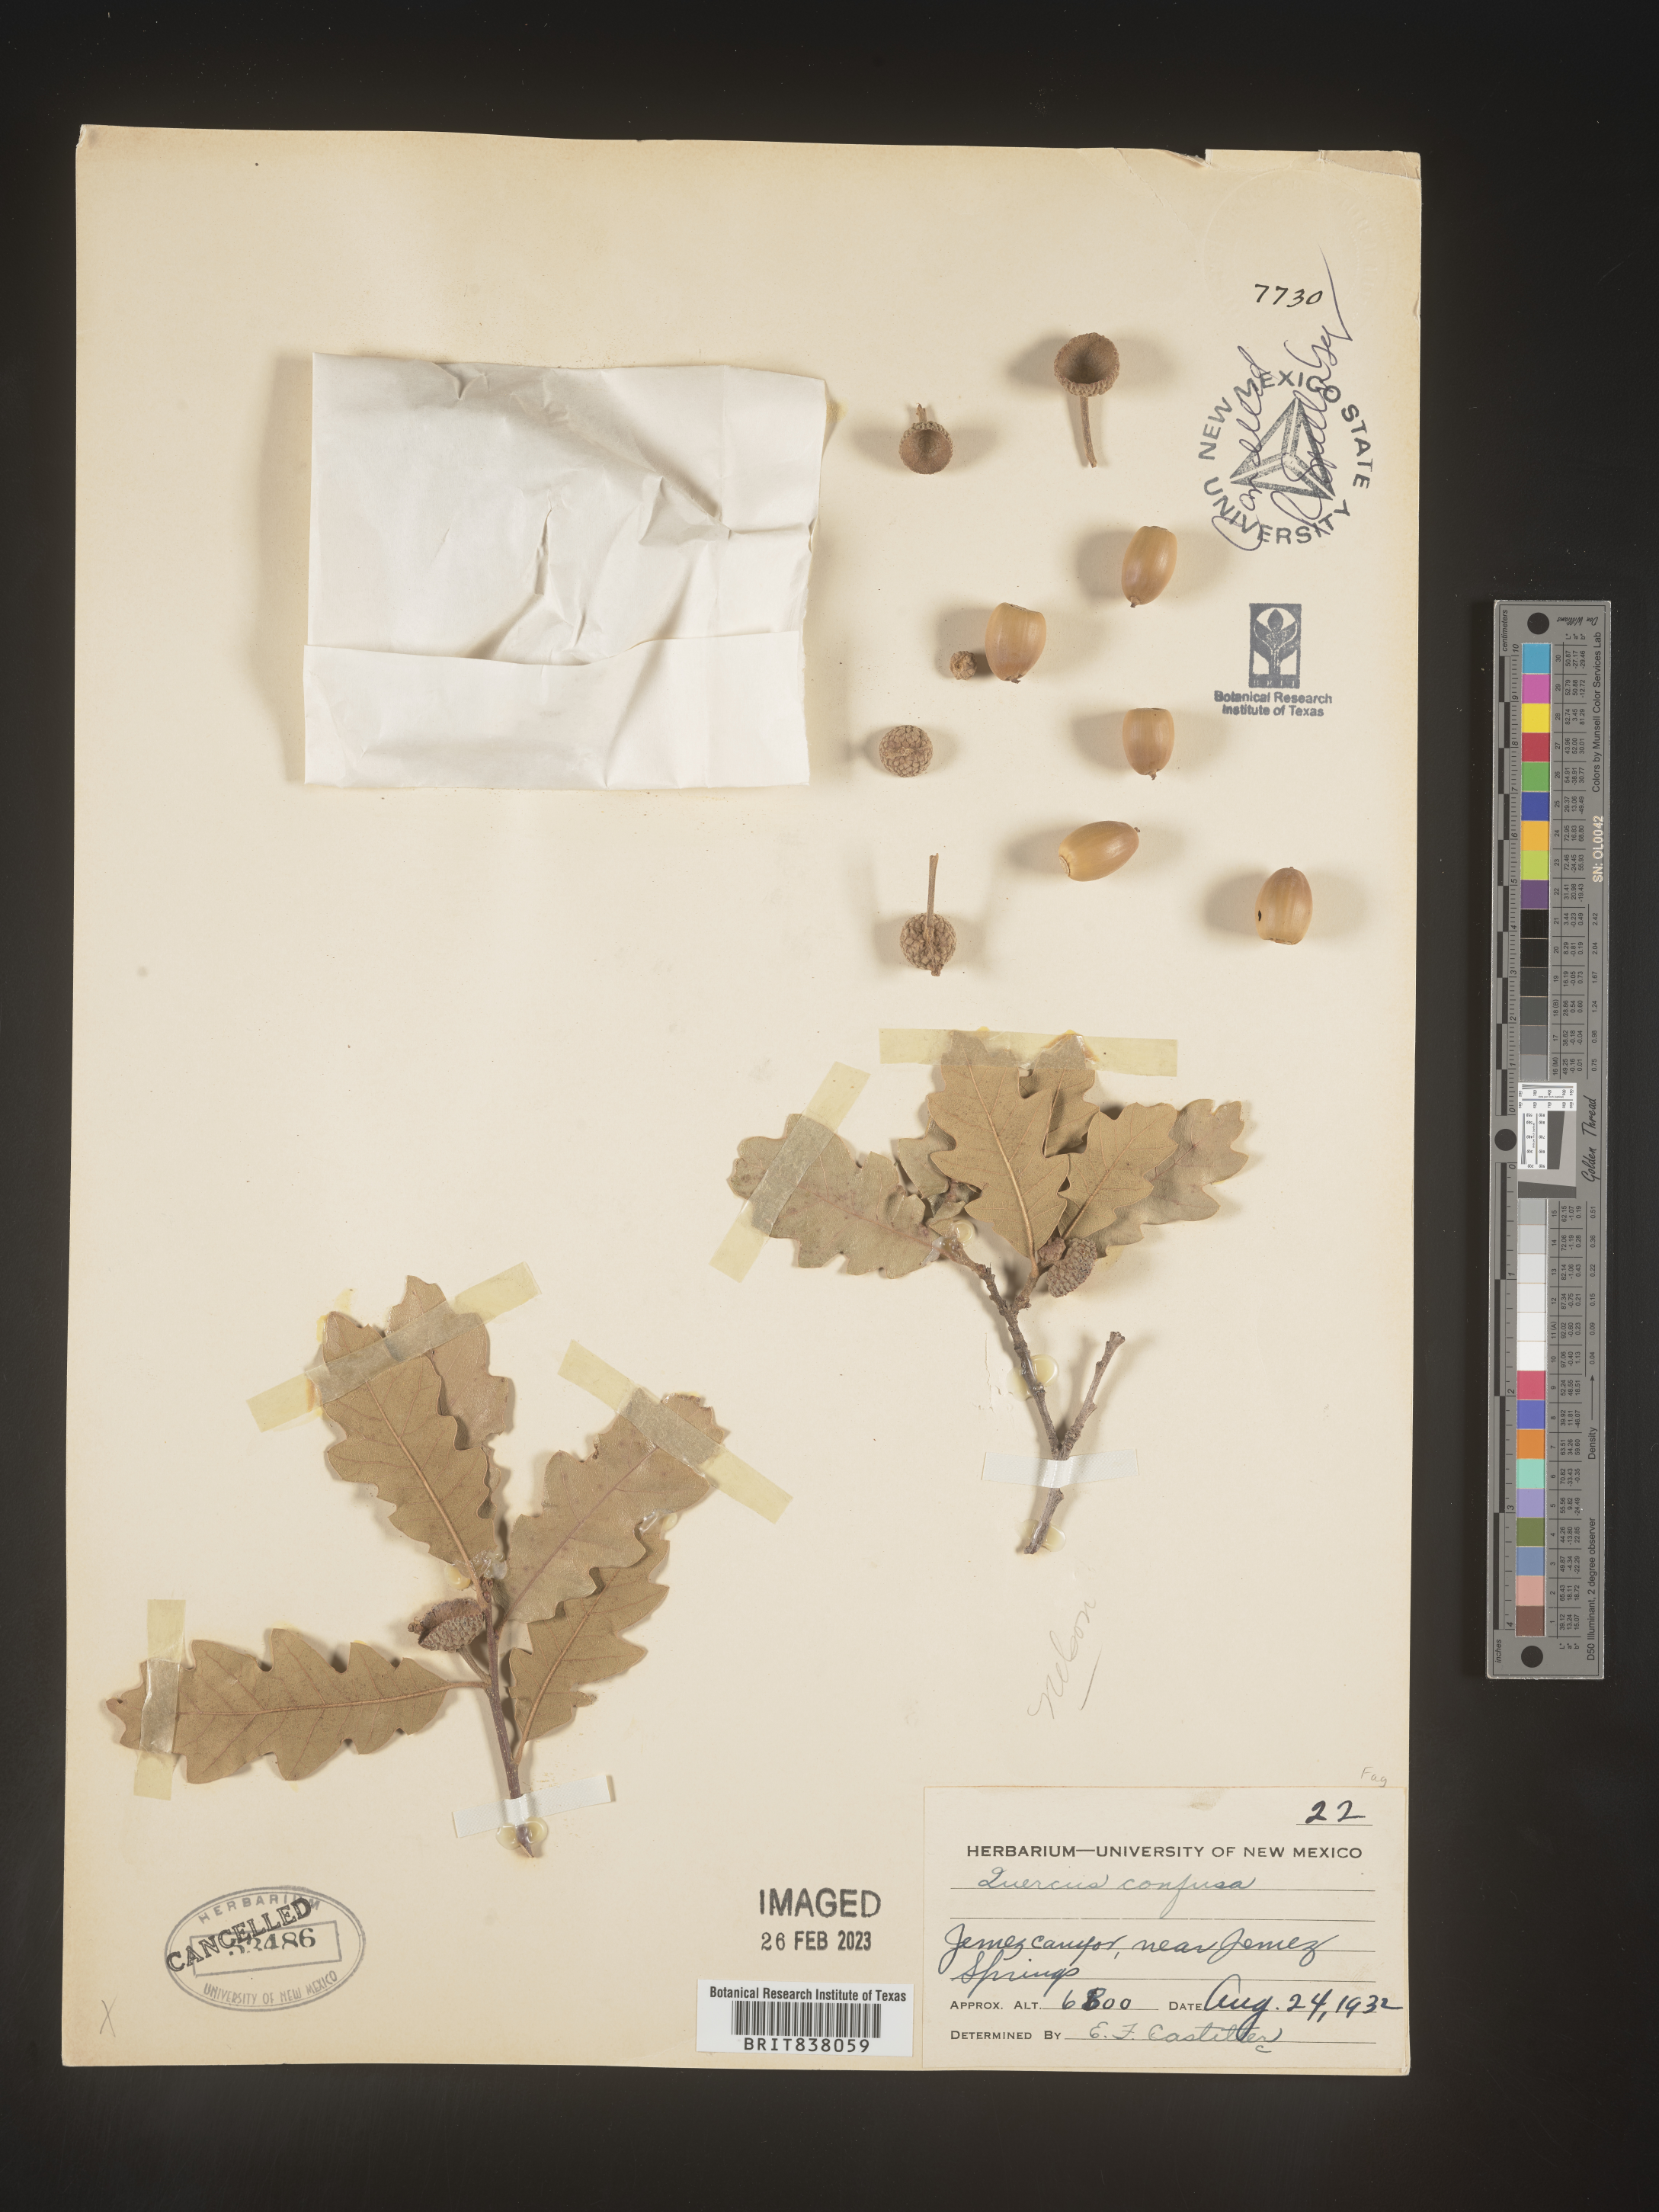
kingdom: Plantae
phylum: Tracheophyta
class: Magnoliopsida
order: Fagales
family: Fagaceae
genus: Quercus
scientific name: Quercus gambelii
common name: Gambel oak
